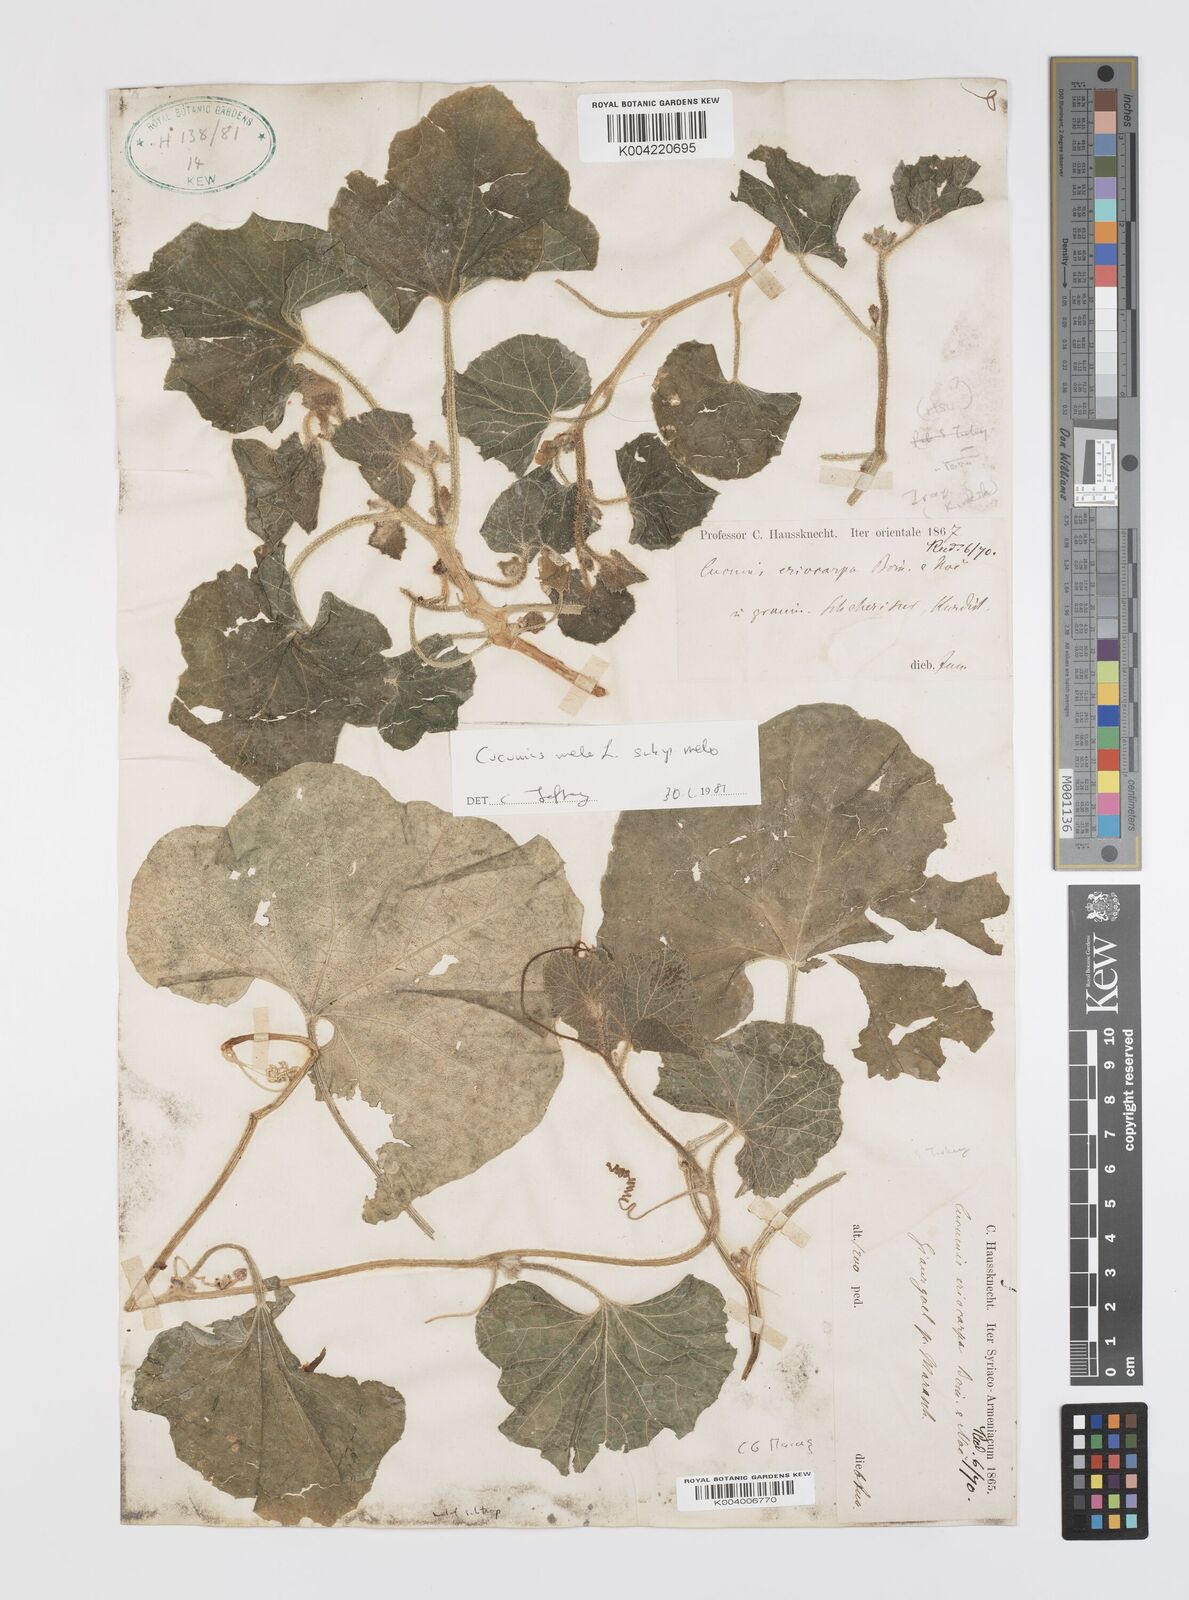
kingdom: Plantae
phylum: Tracheophyta
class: Magnoliopsida
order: Cucurbitales
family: Cucurbitaceae
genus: Cucumis
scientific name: Cucumis melo
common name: Melon
